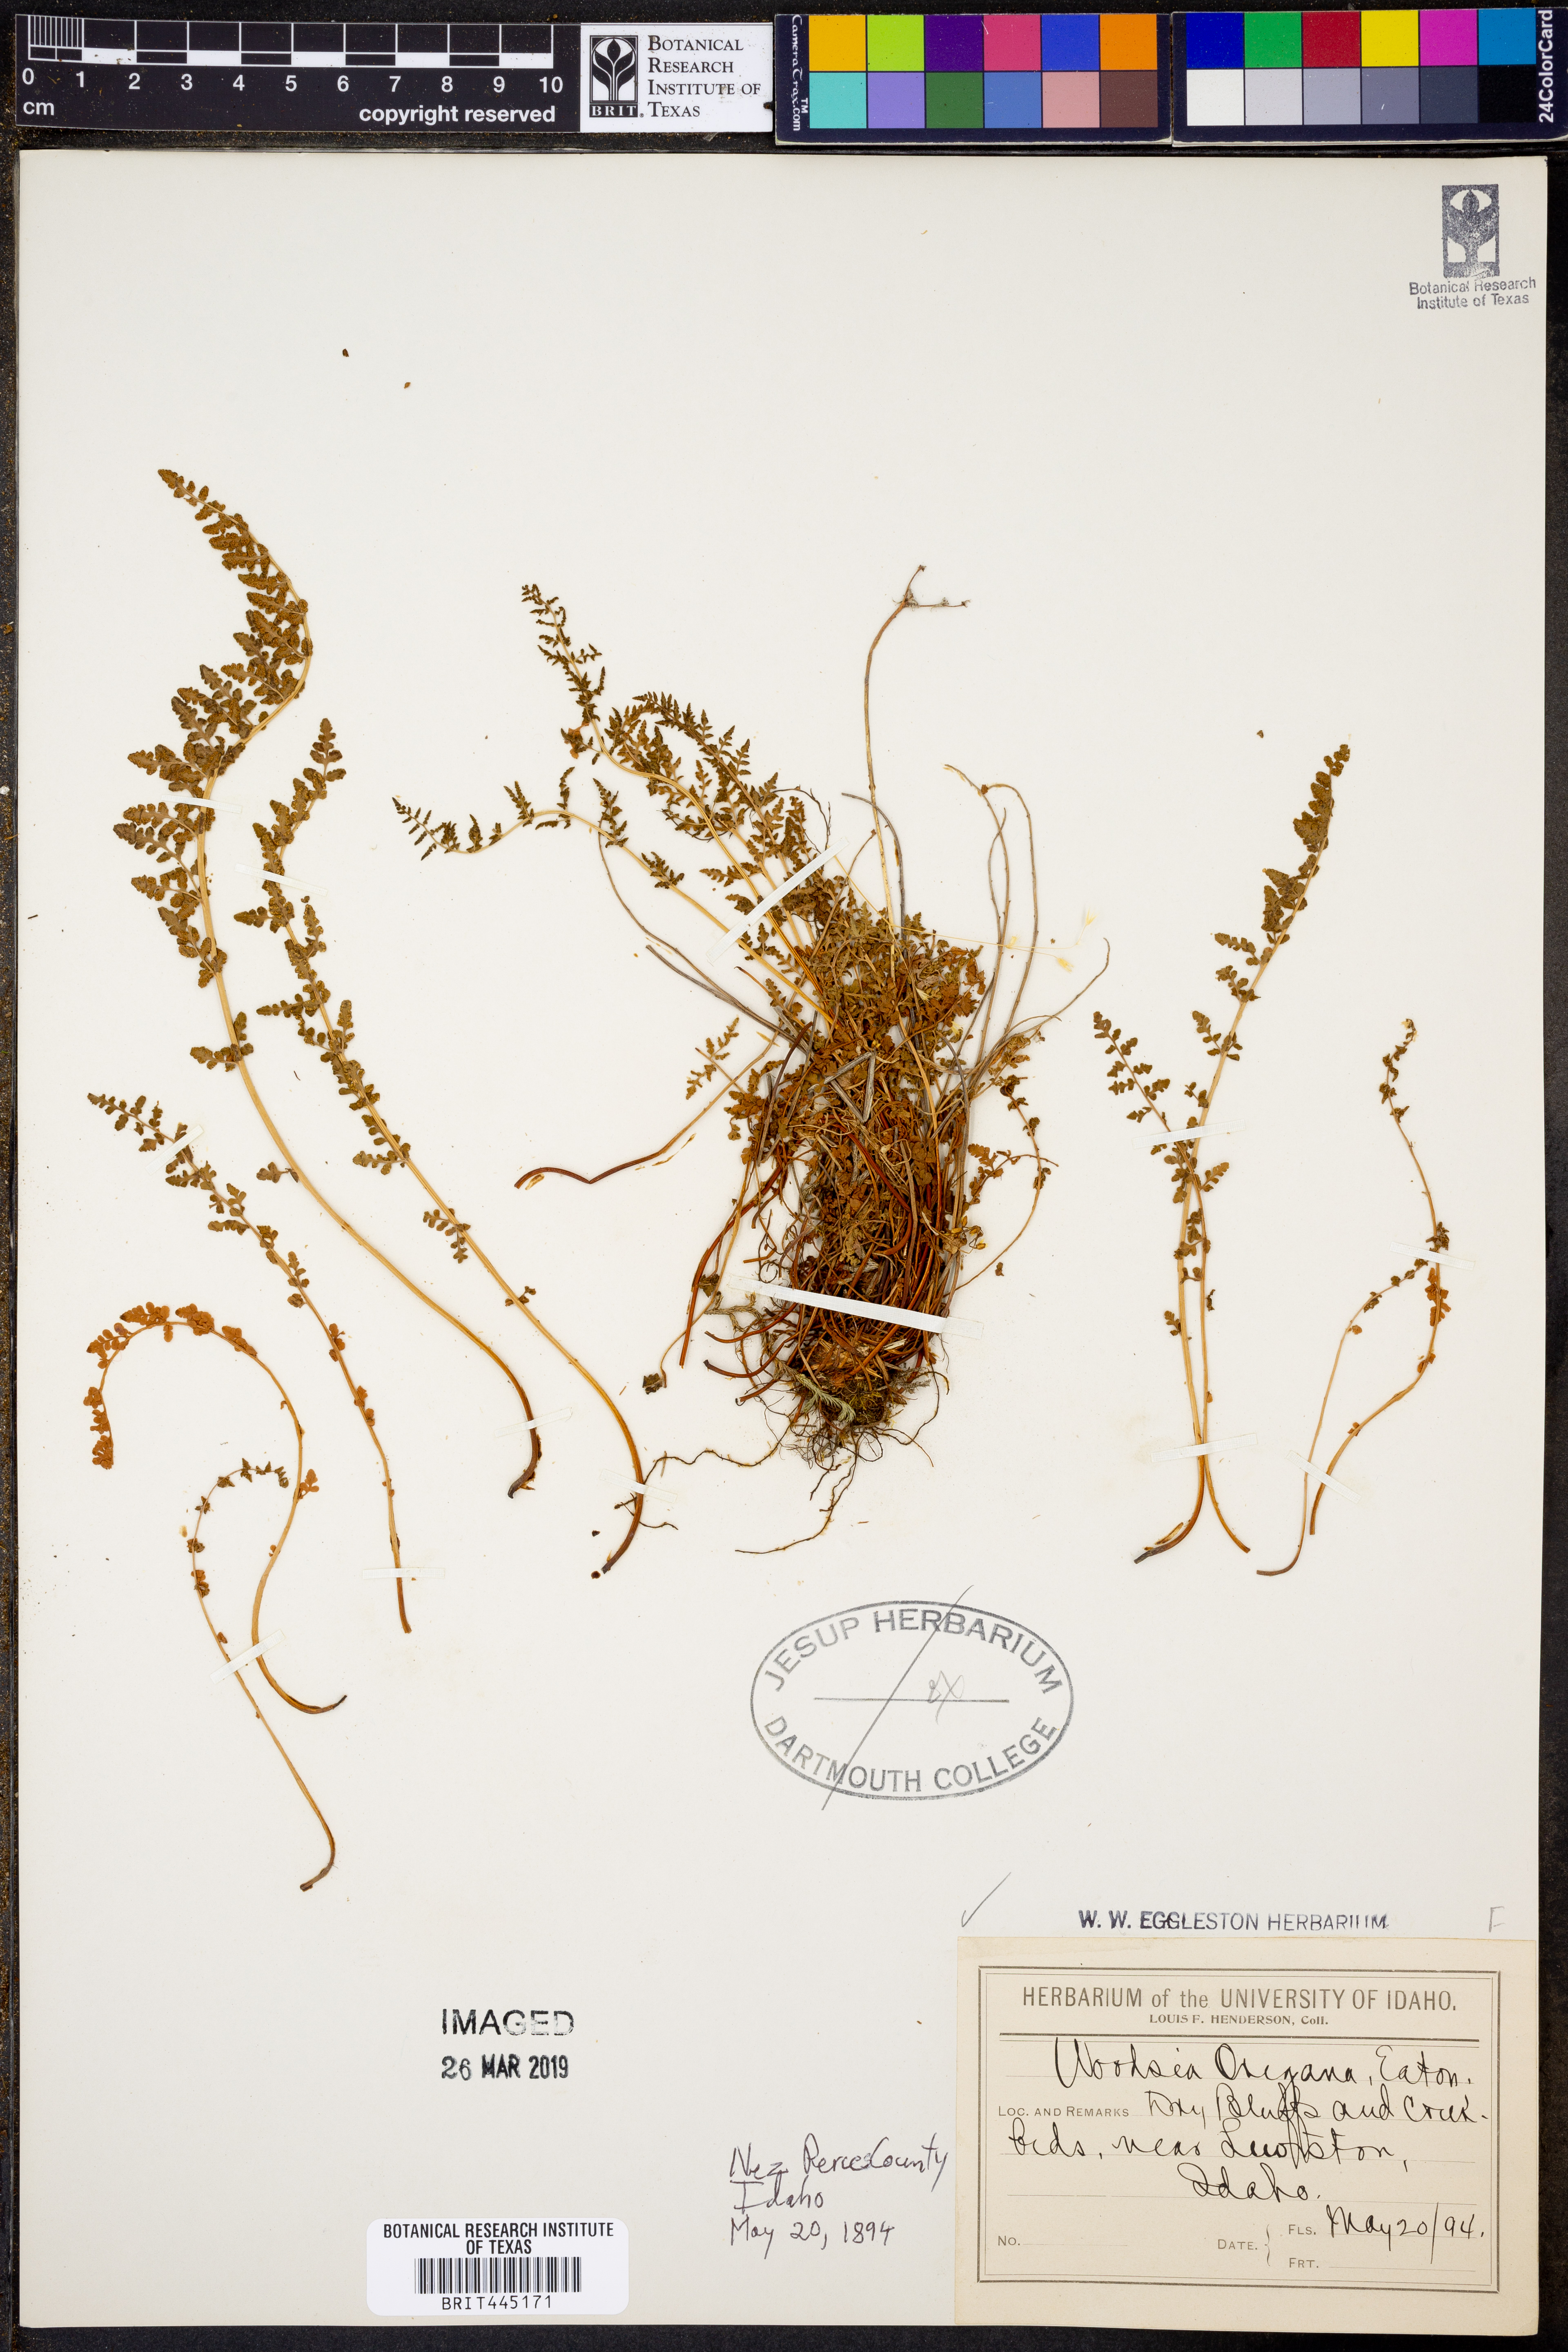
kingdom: Plantae
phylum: Tracheophyta
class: Polypodiopsida
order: Polypodiales
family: Woodsiaceae
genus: Physematium
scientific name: Physematium oreganum
